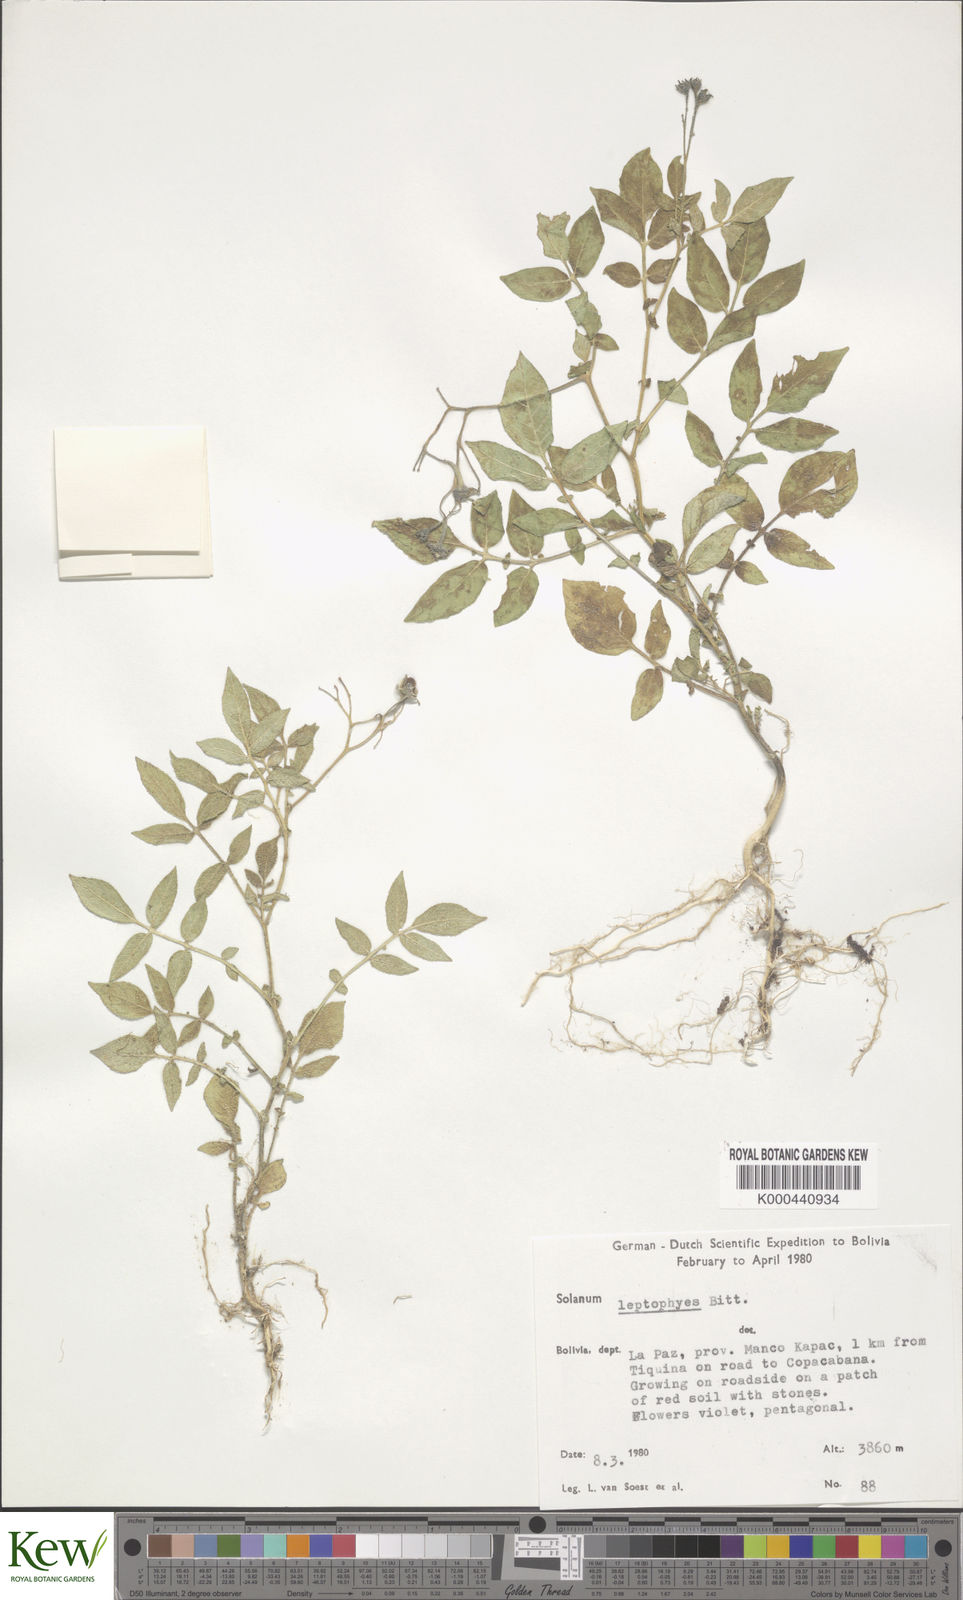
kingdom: Plantae
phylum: Tracheophyta
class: Magnoliopsida
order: Solanales
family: Solanaceae
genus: Solanum
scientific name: Solanum brevicaule
